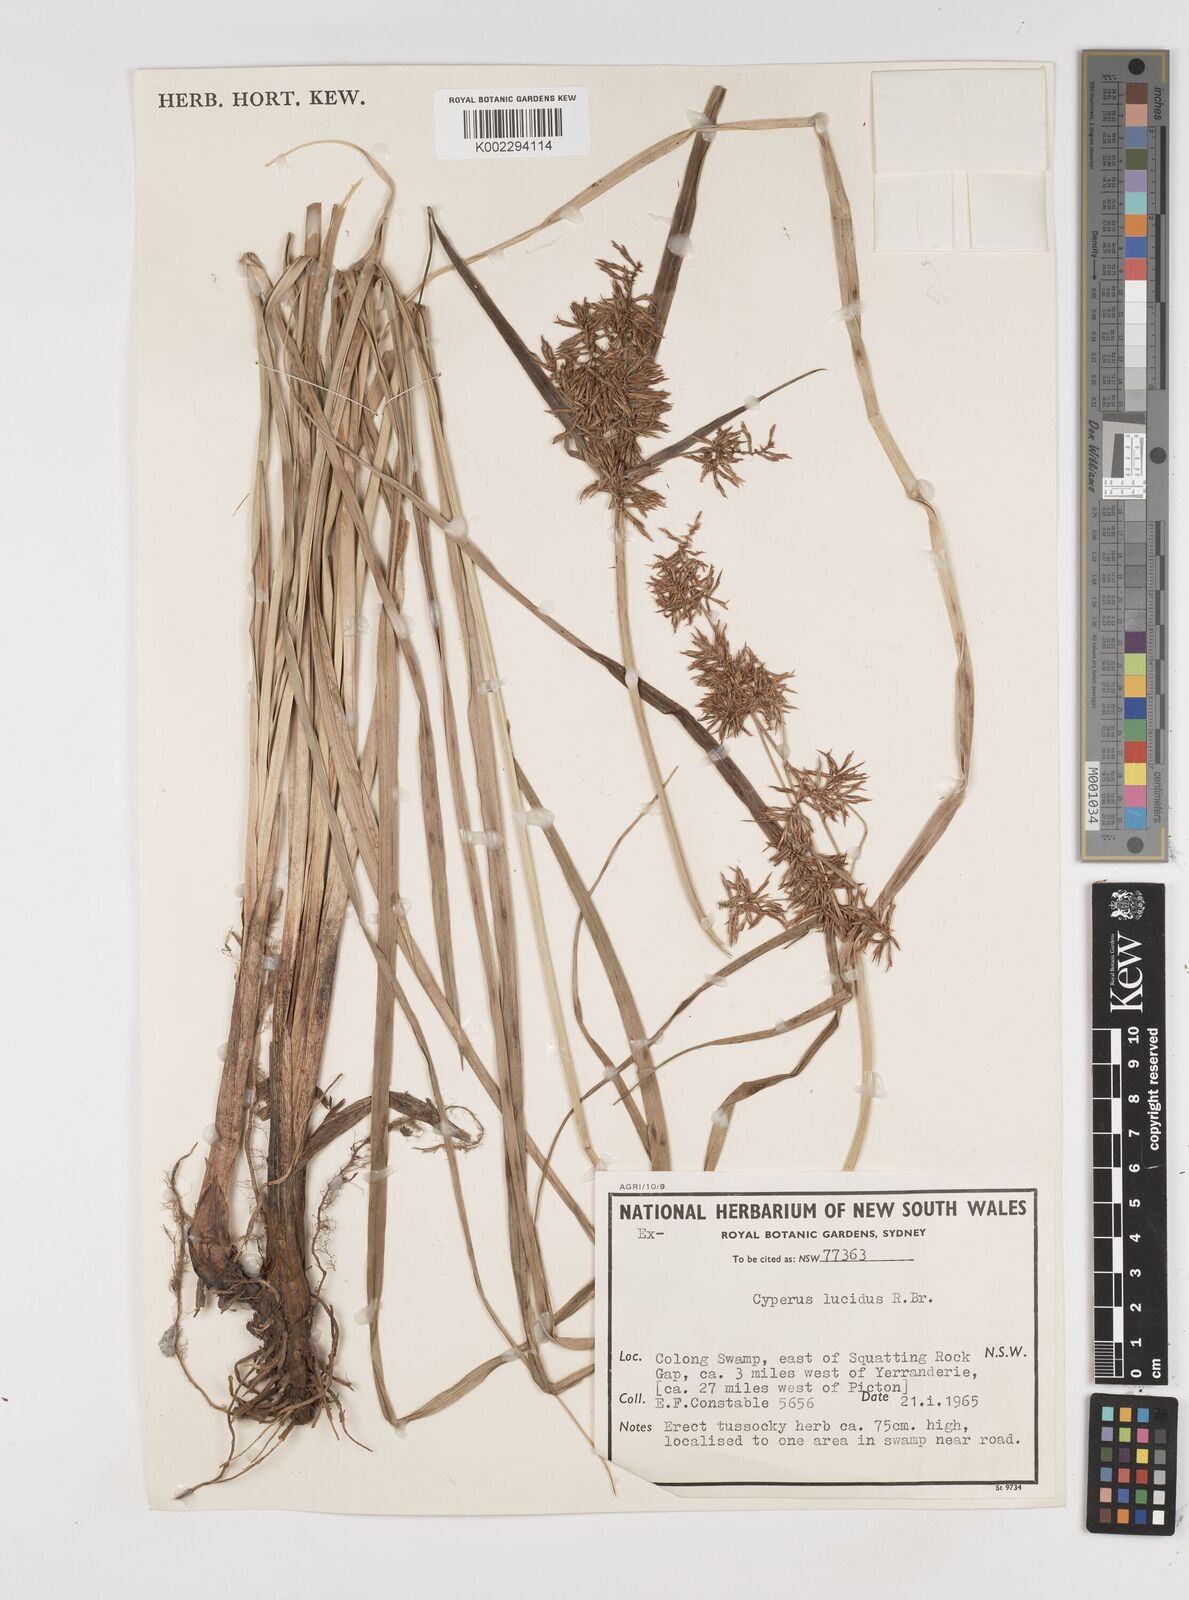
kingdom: Plantae
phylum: Tracheophyta
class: Liliopsida
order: Poales
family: Cyperaceae
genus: Cyperus
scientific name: Cyperus lucidus
